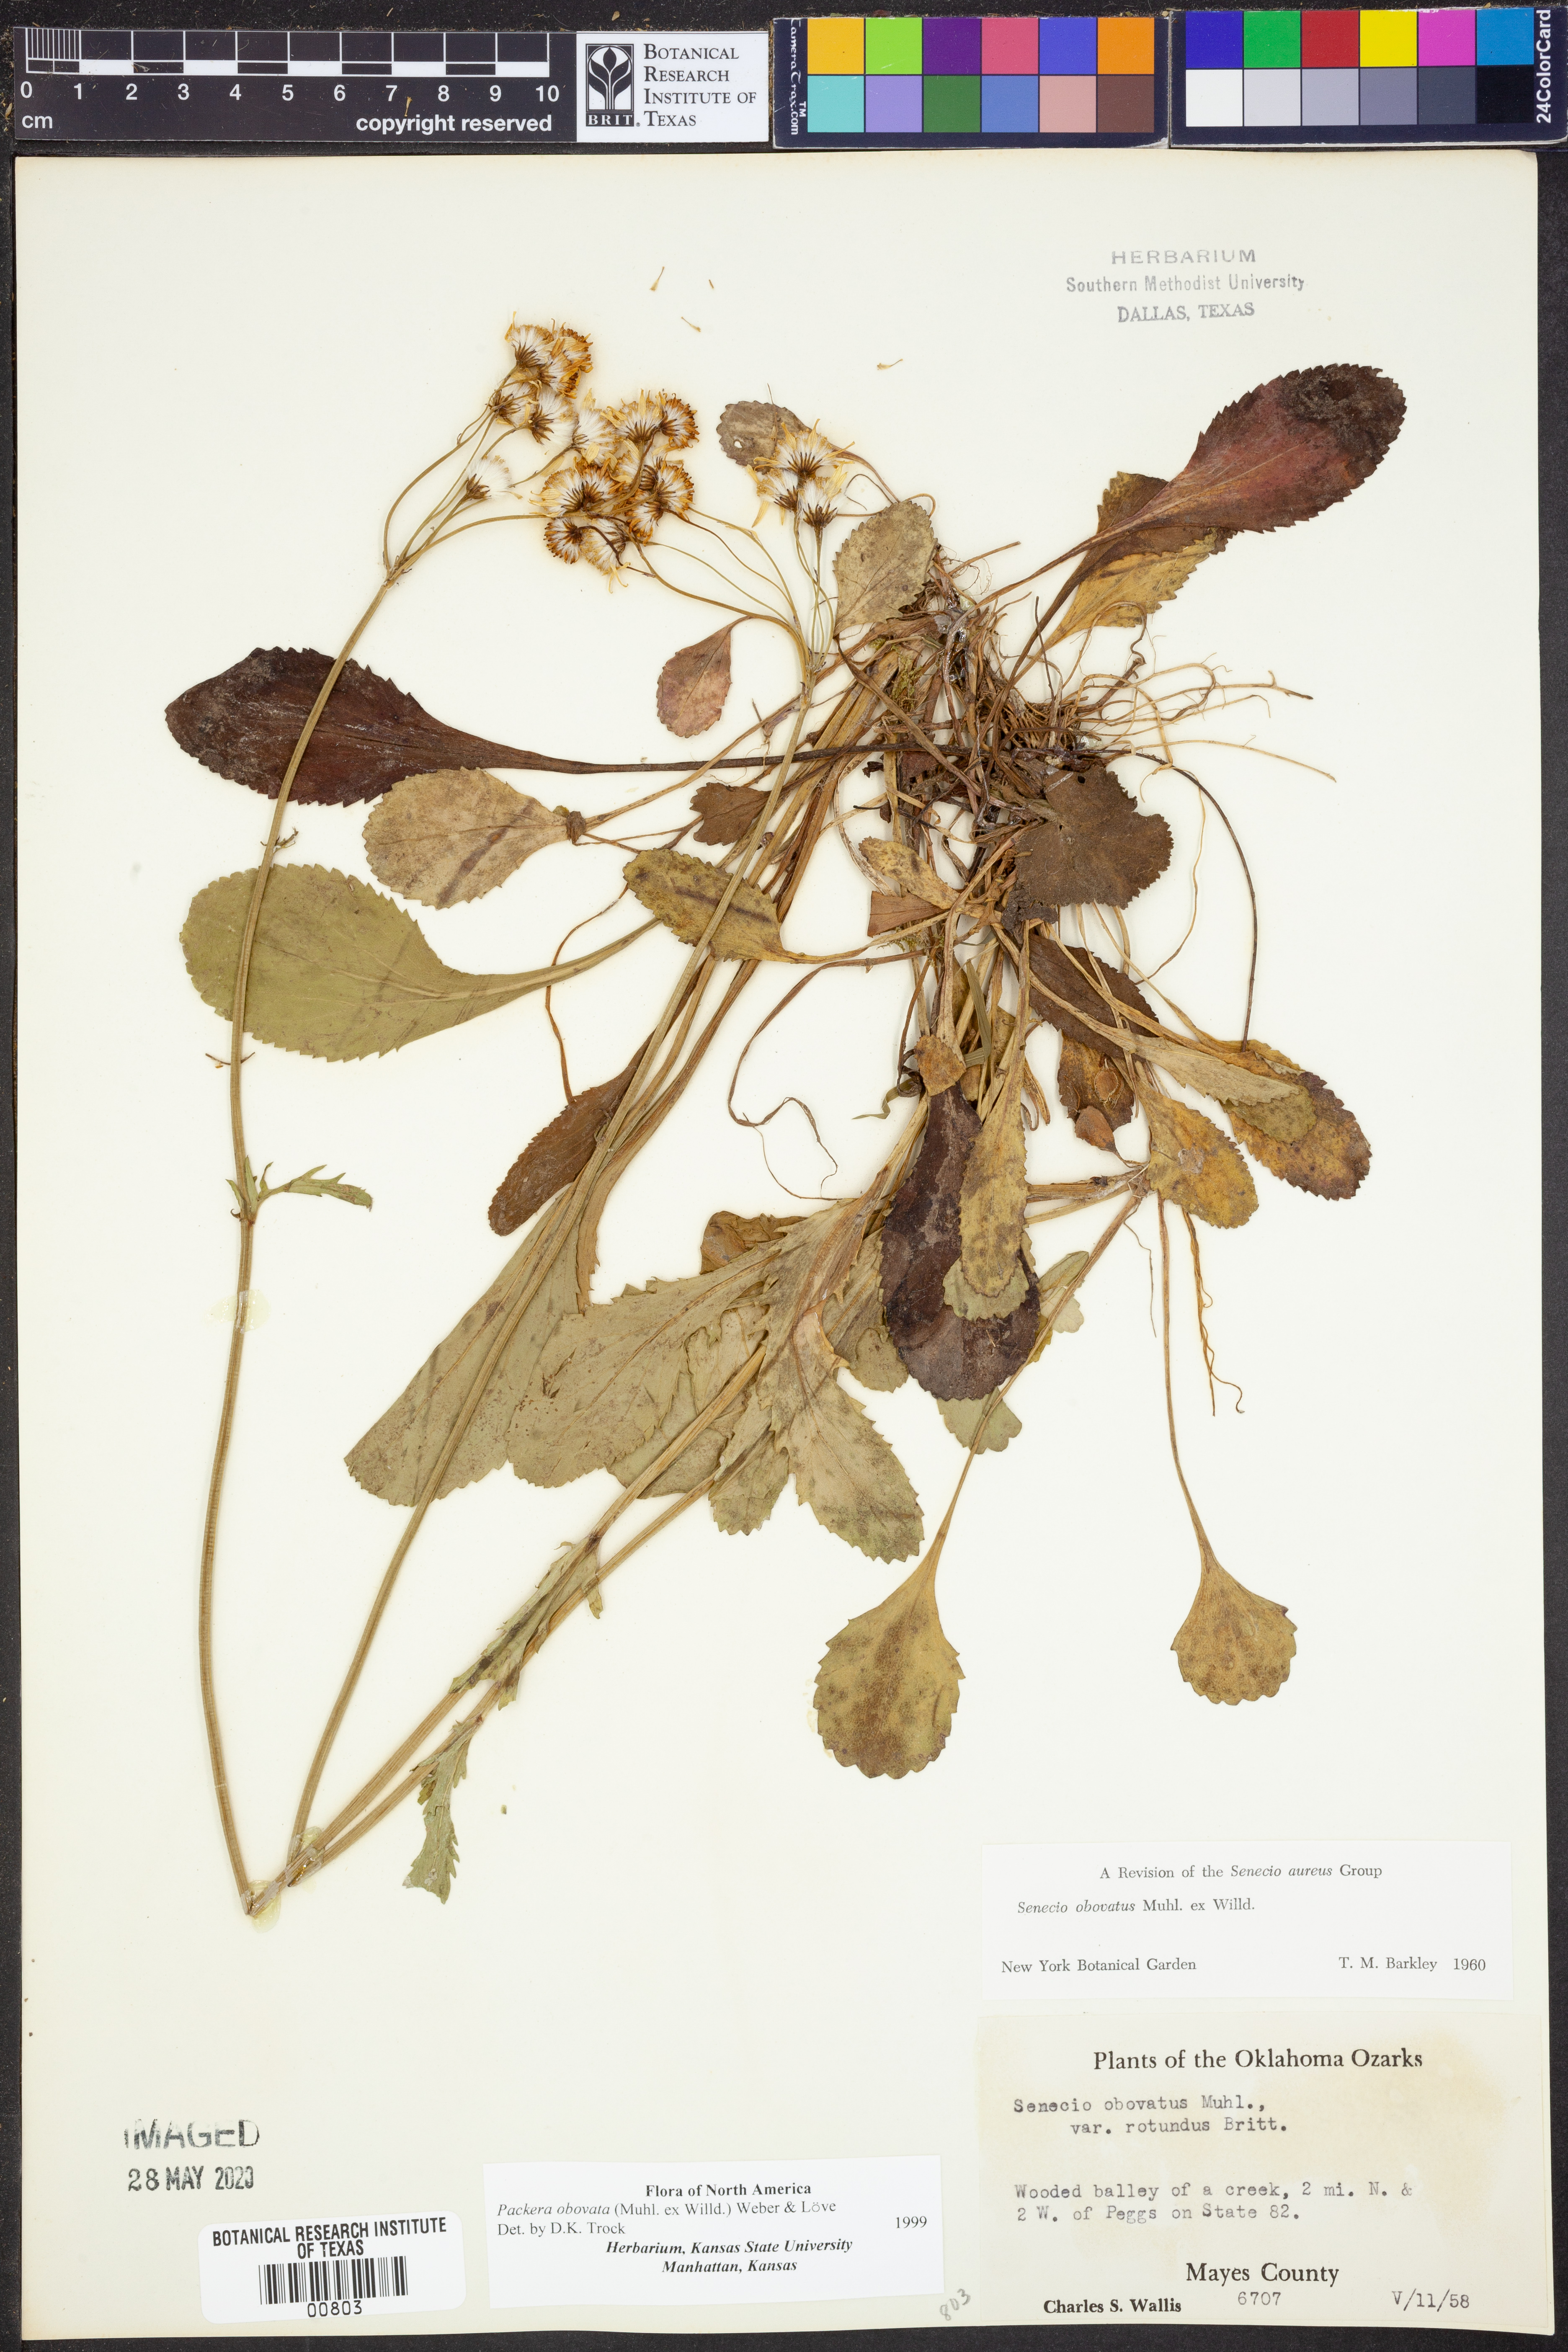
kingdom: Plantae
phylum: Tracheophyta
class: Magnoliopsida
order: Asterales
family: Asteraceae
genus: Packera
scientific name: Packera obovata
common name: Round-leaf ragwort
